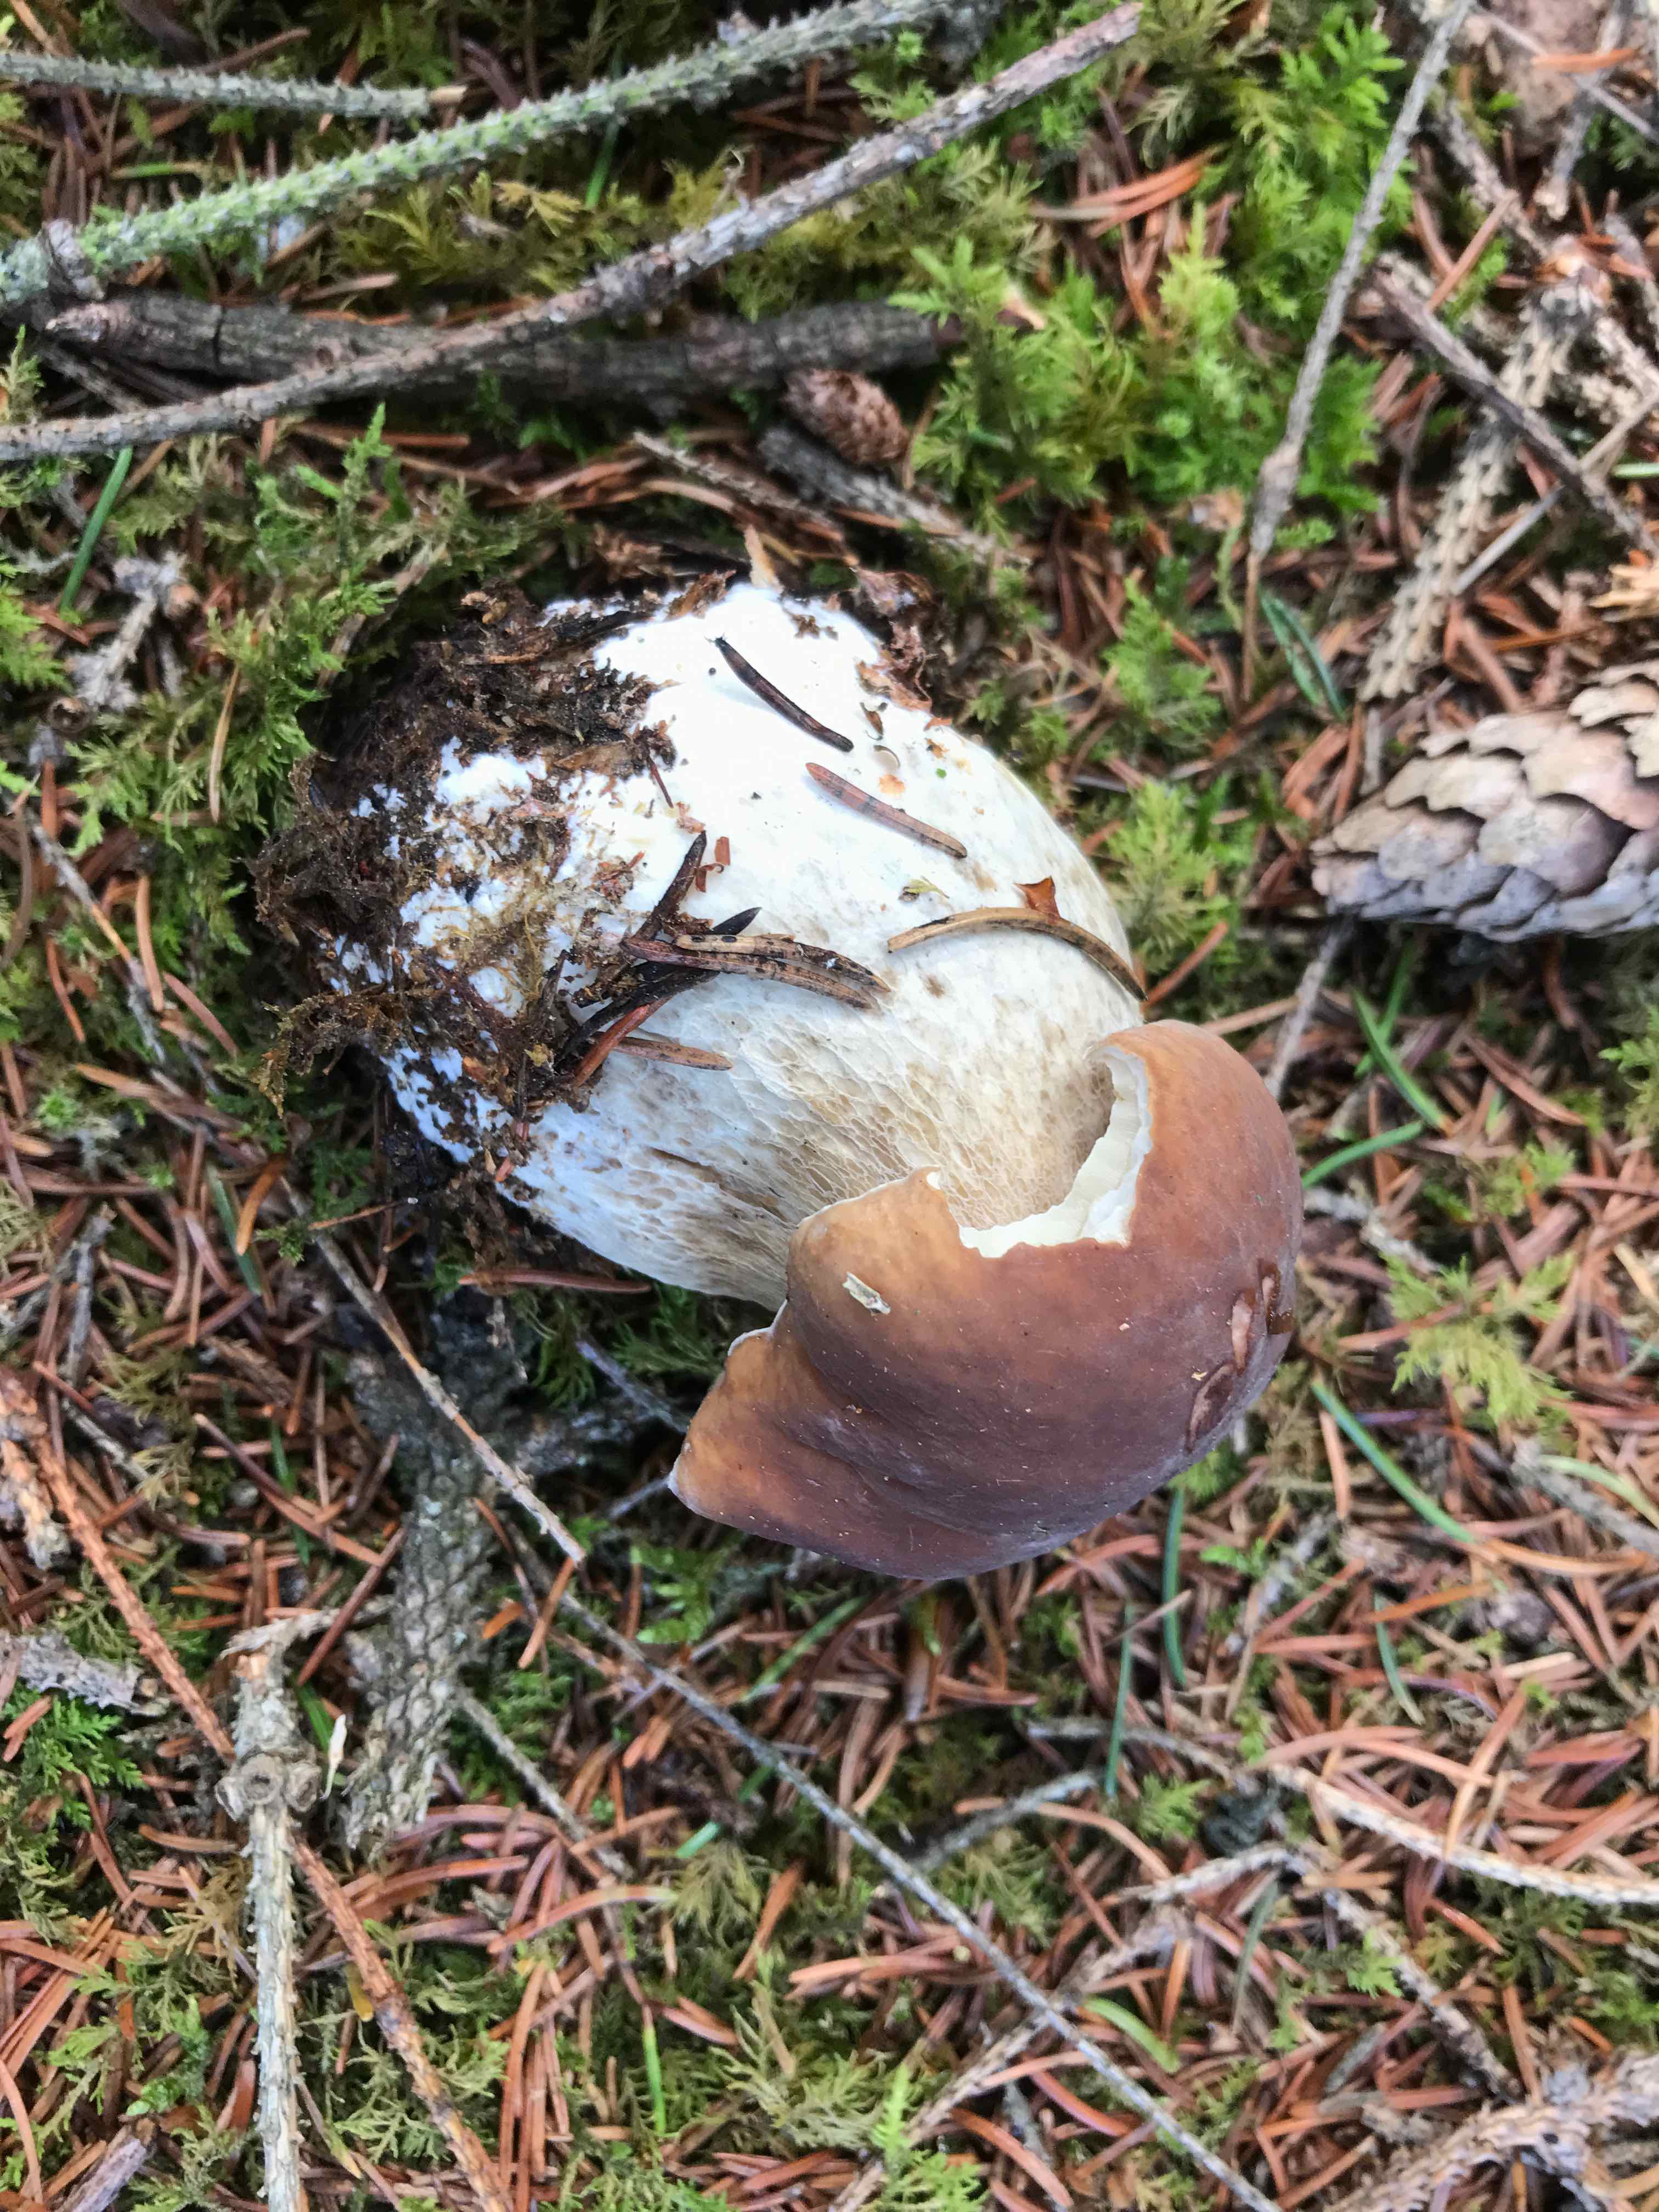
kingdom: Fungi
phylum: Basidiomycota
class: Agaricomycetes
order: Boletales
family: Boletaceae
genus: Boletus
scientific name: Boletus edulis
